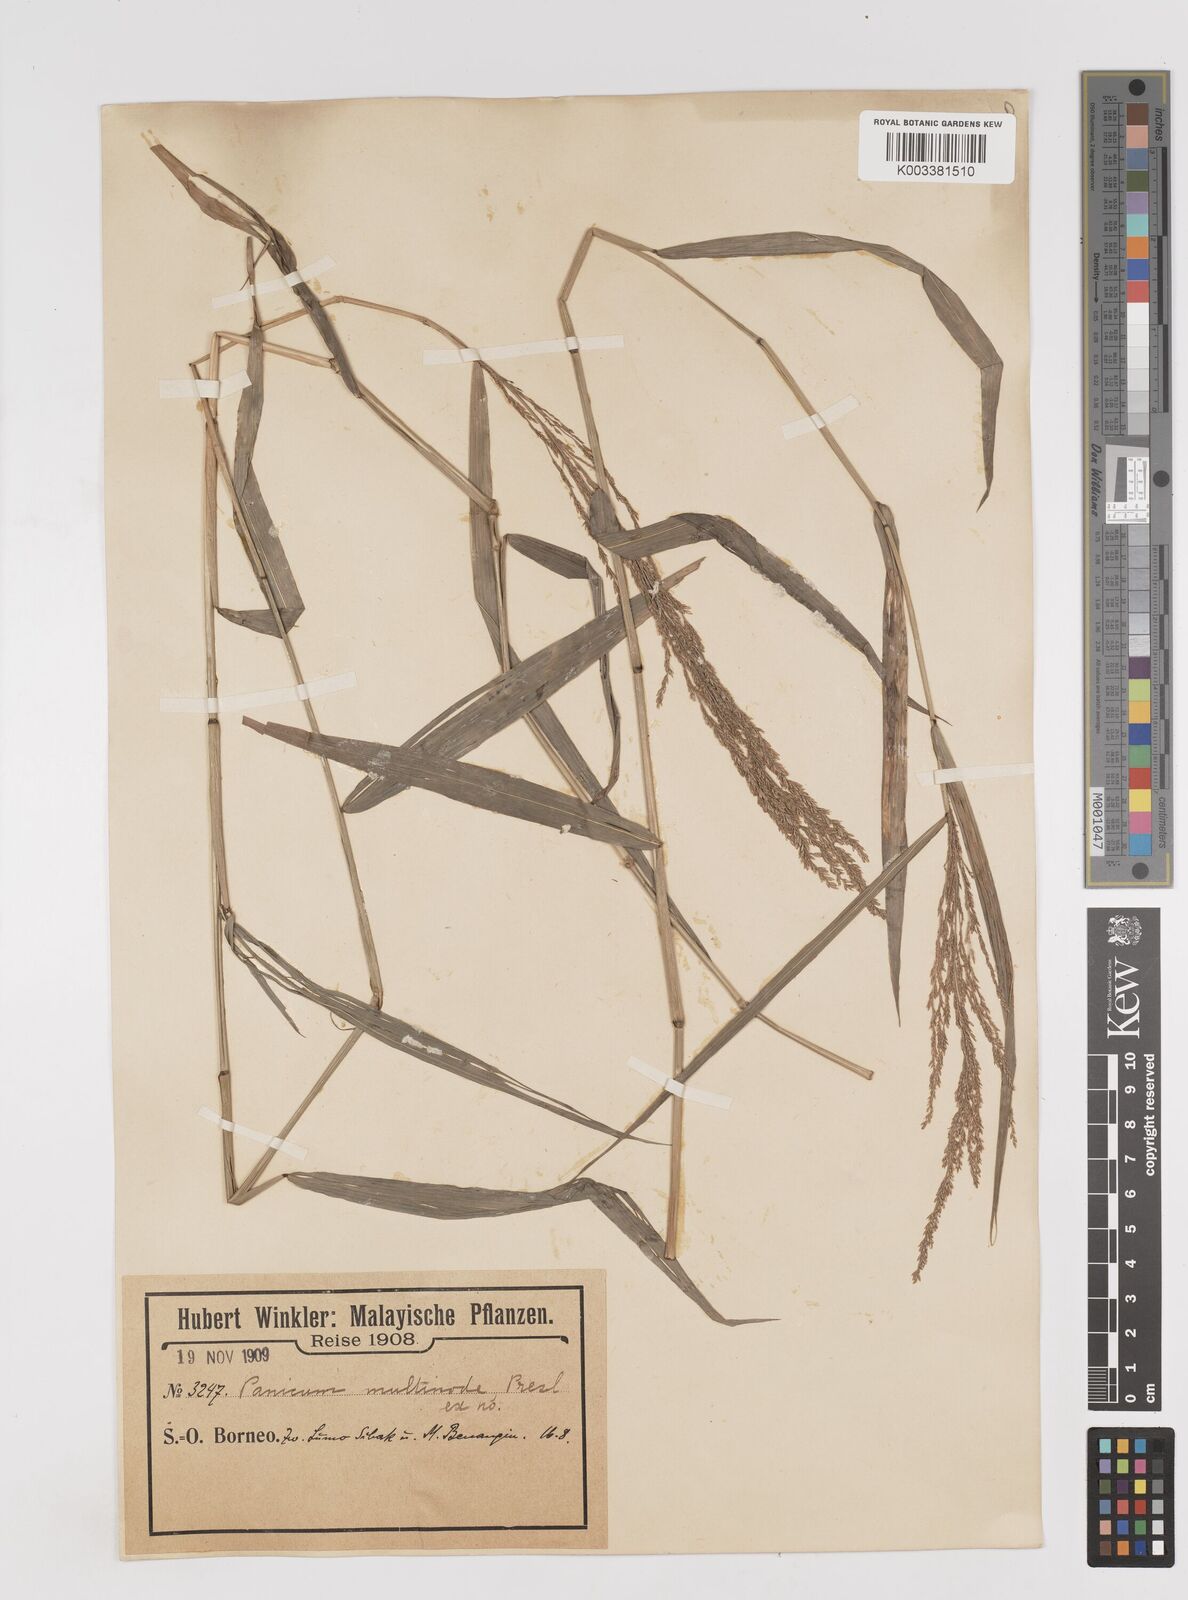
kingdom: Plantae
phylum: Tracheophyta
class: Liliopsida
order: Poales
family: Poaceae
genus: Ottochloa
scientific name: Ottochloa nodosa
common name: Slender-panic grass
